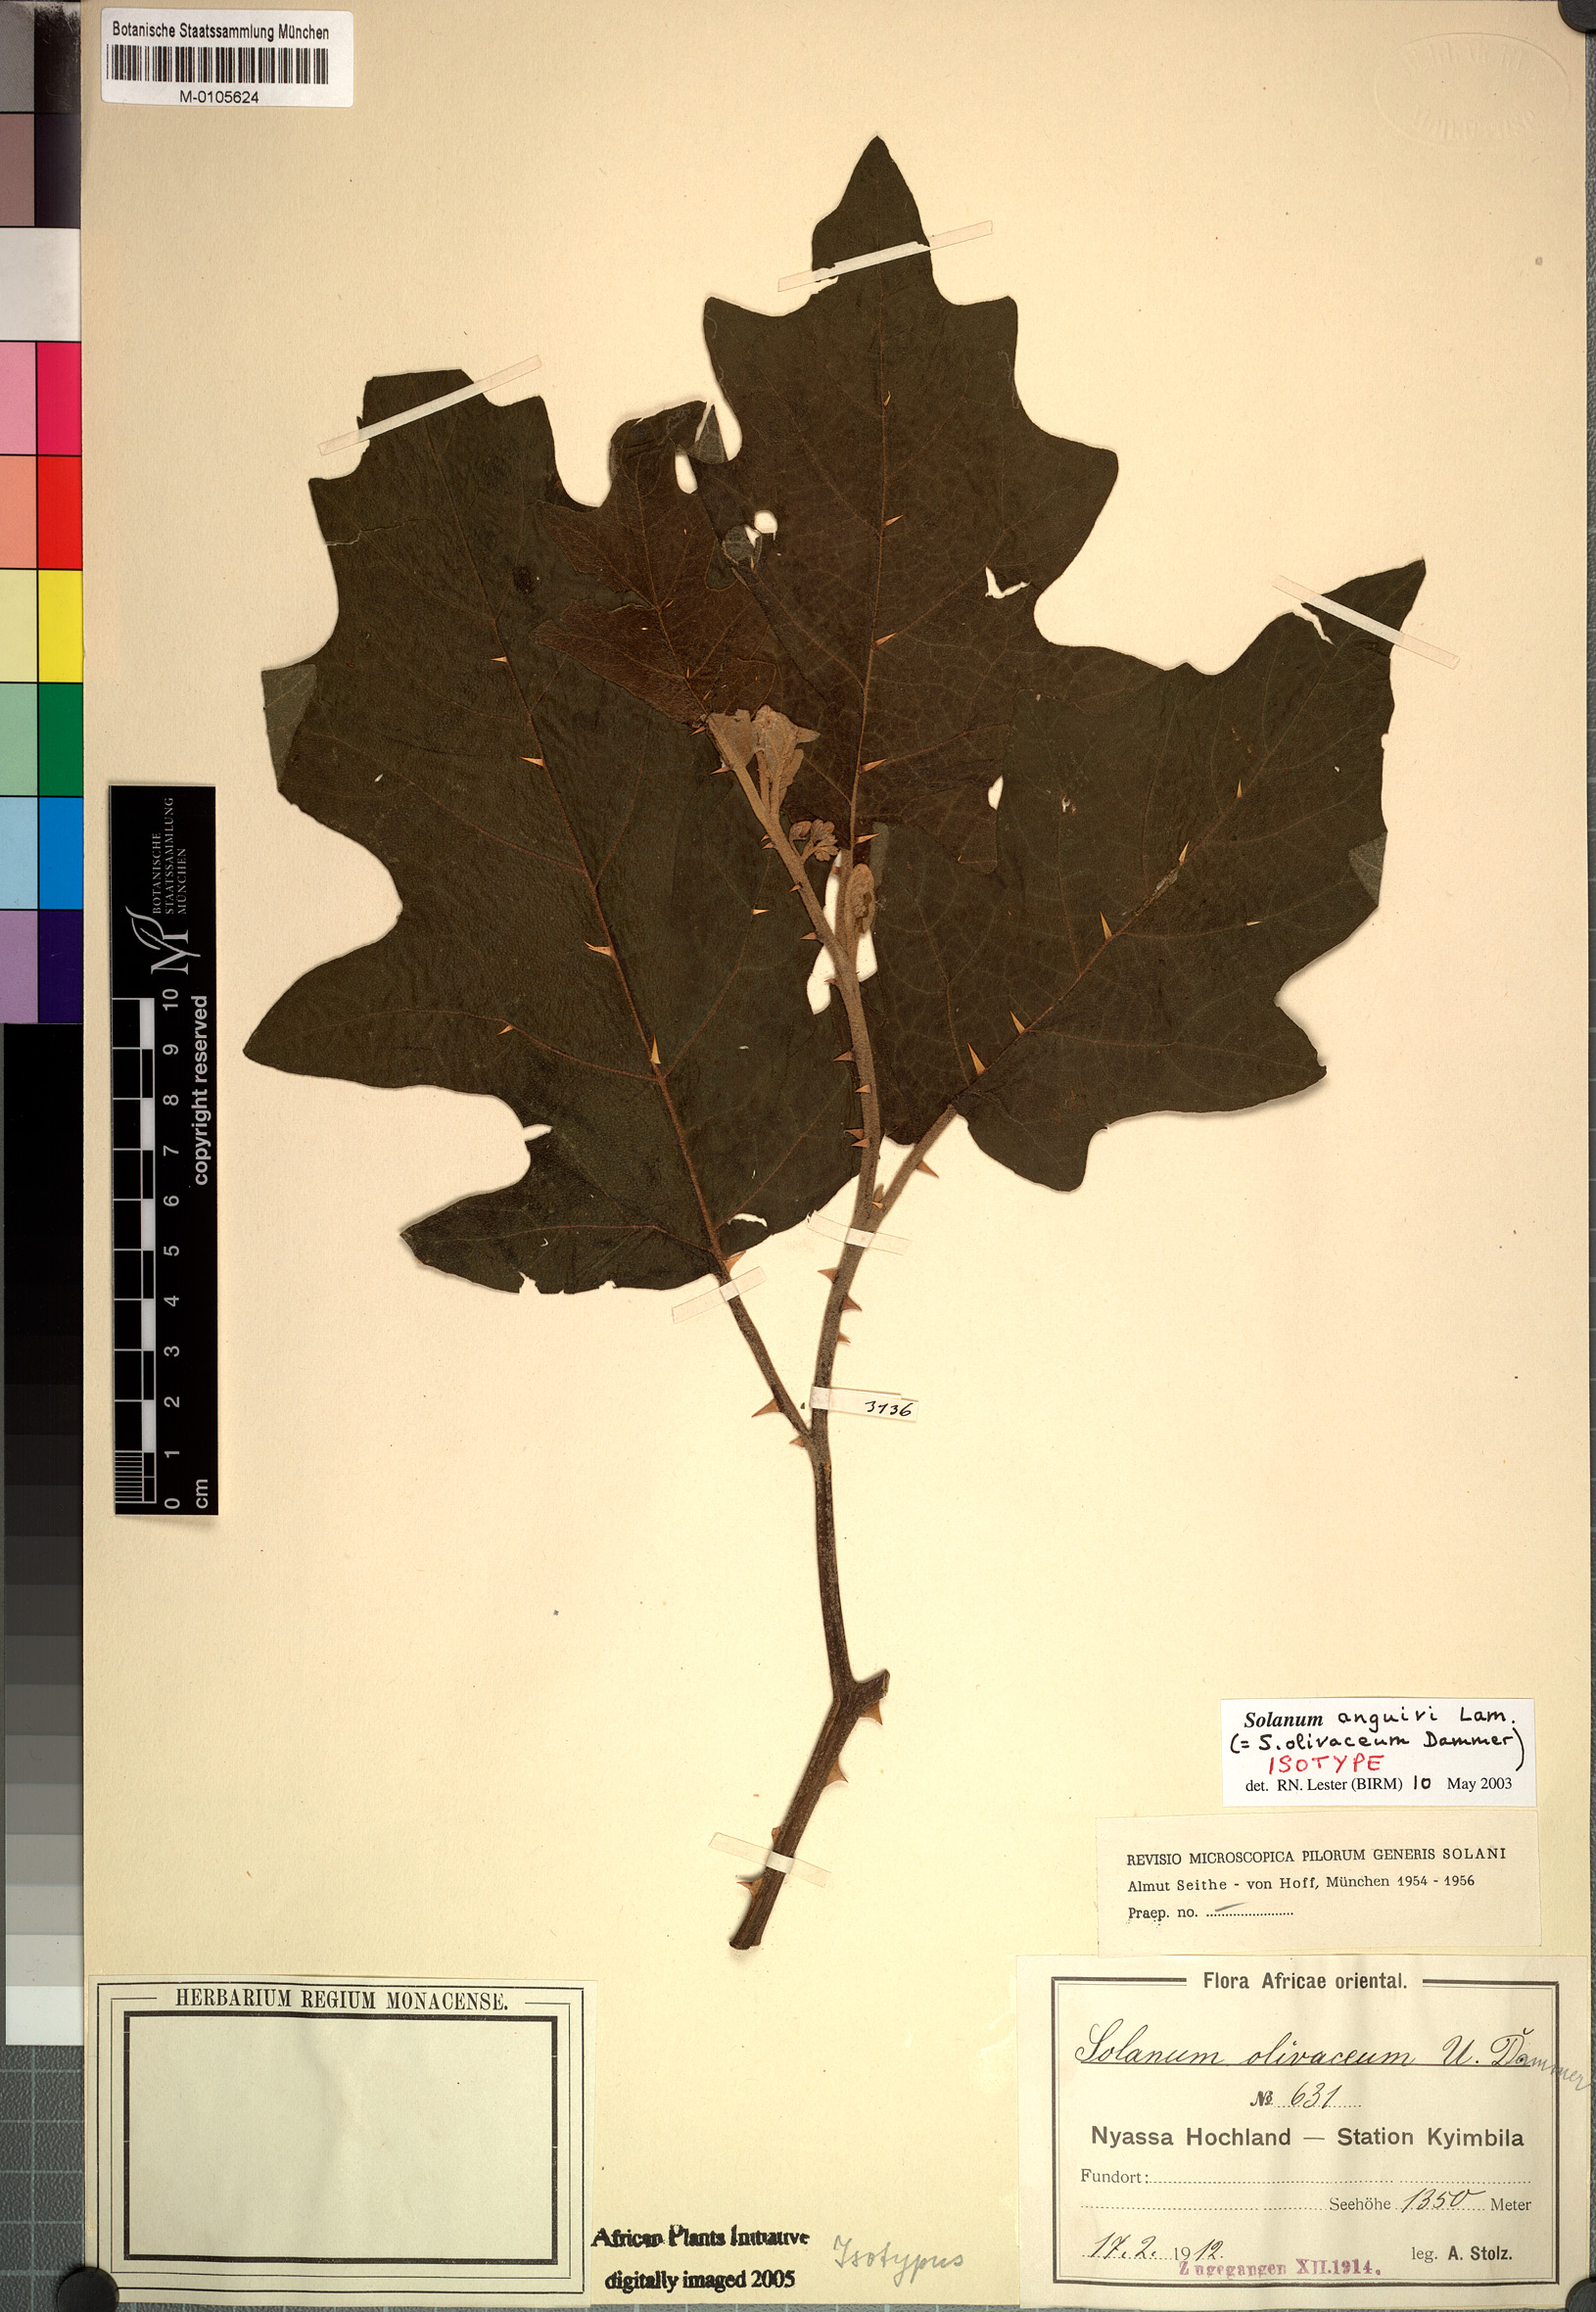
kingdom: Plantae
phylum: Tracheophyta
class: Magnoliopsida
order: Solanales
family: Solanaceae
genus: Solanum
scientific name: Solanum anguivi
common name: Forest bitterberry
